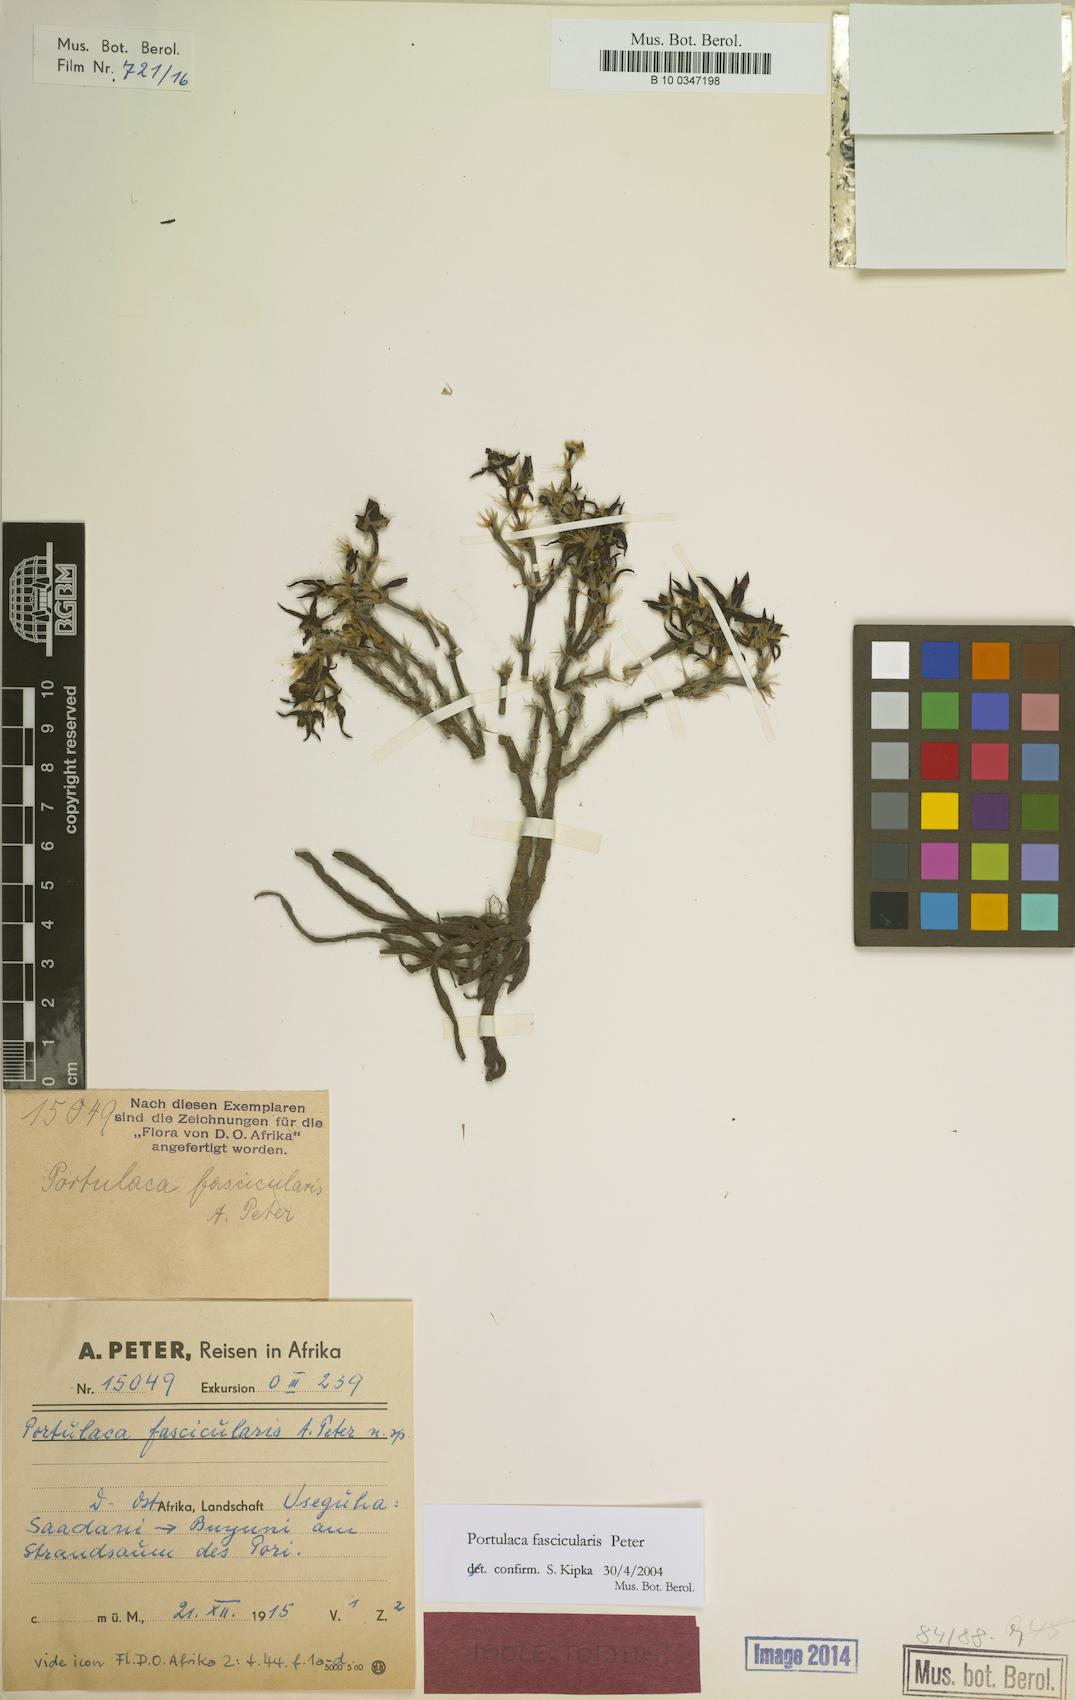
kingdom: Plantae
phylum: Tracheophyta
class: Magnoliopsida
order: Caryophyllales
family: Portulacaceae
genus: Portulaca
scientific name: Portulaca fascicularis
